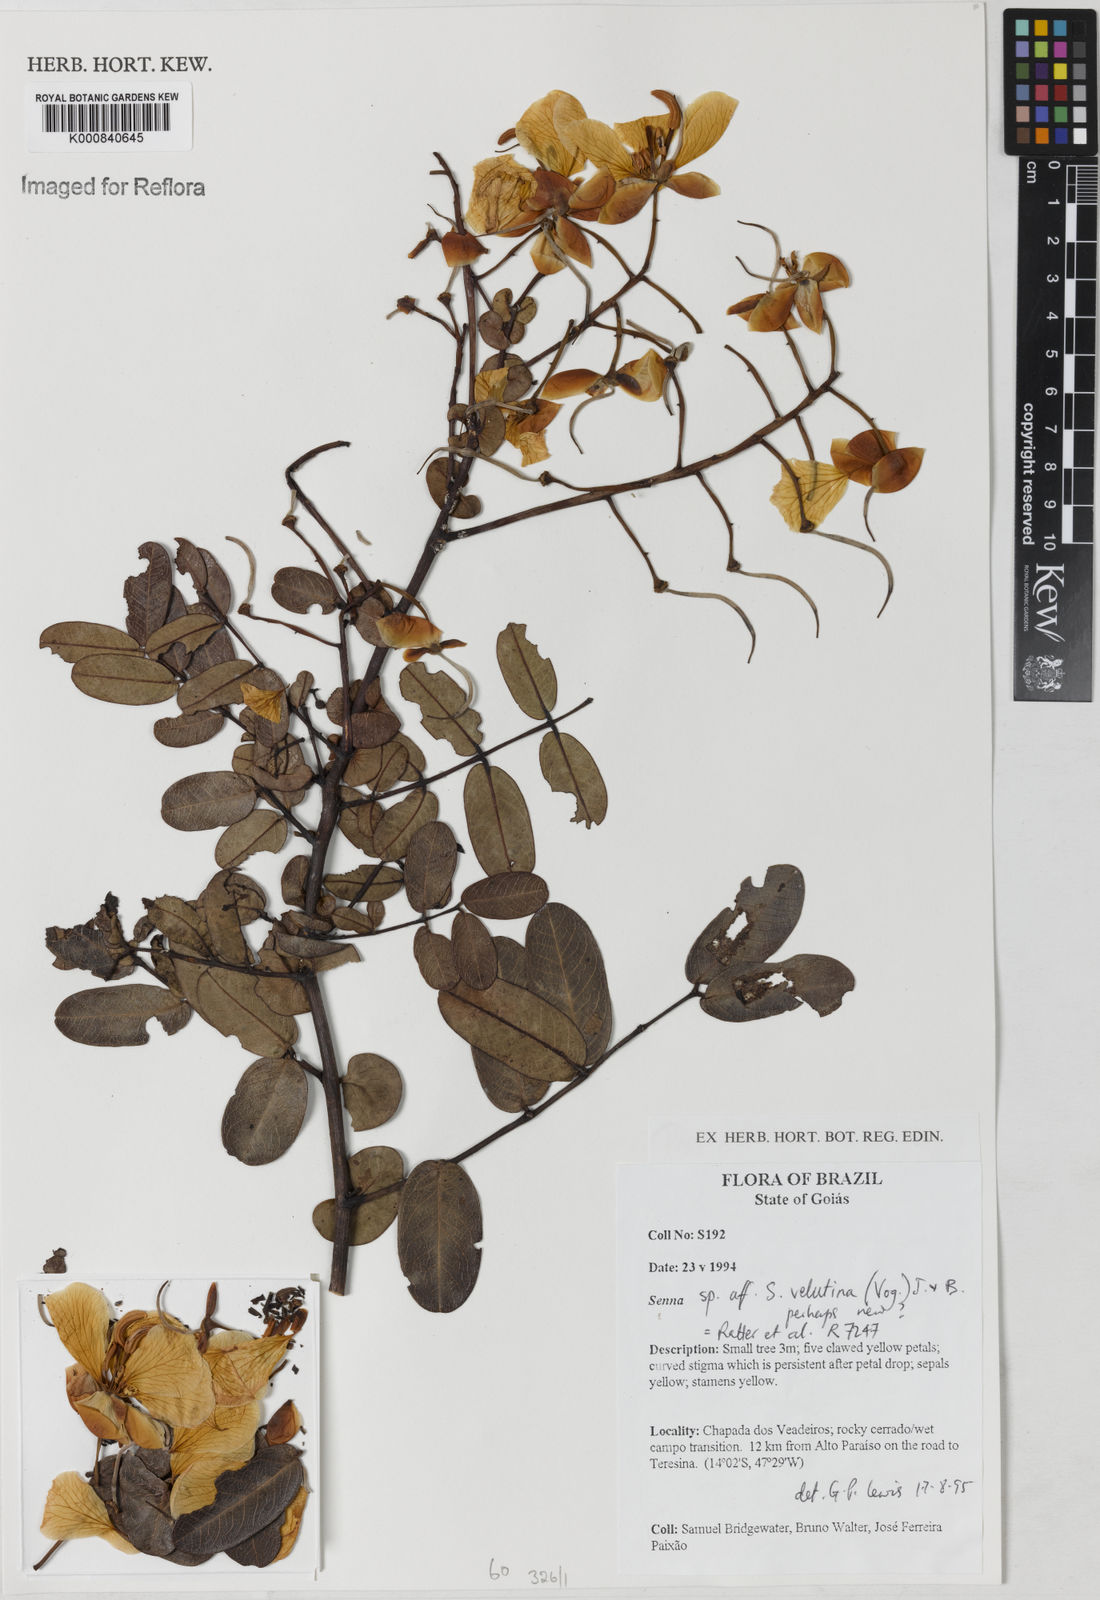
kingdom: Plantae
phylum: Tracheophyta
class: Magnoliopsida
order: Fabales
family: Fabaceae
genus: Senna
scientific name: Senna velutina
